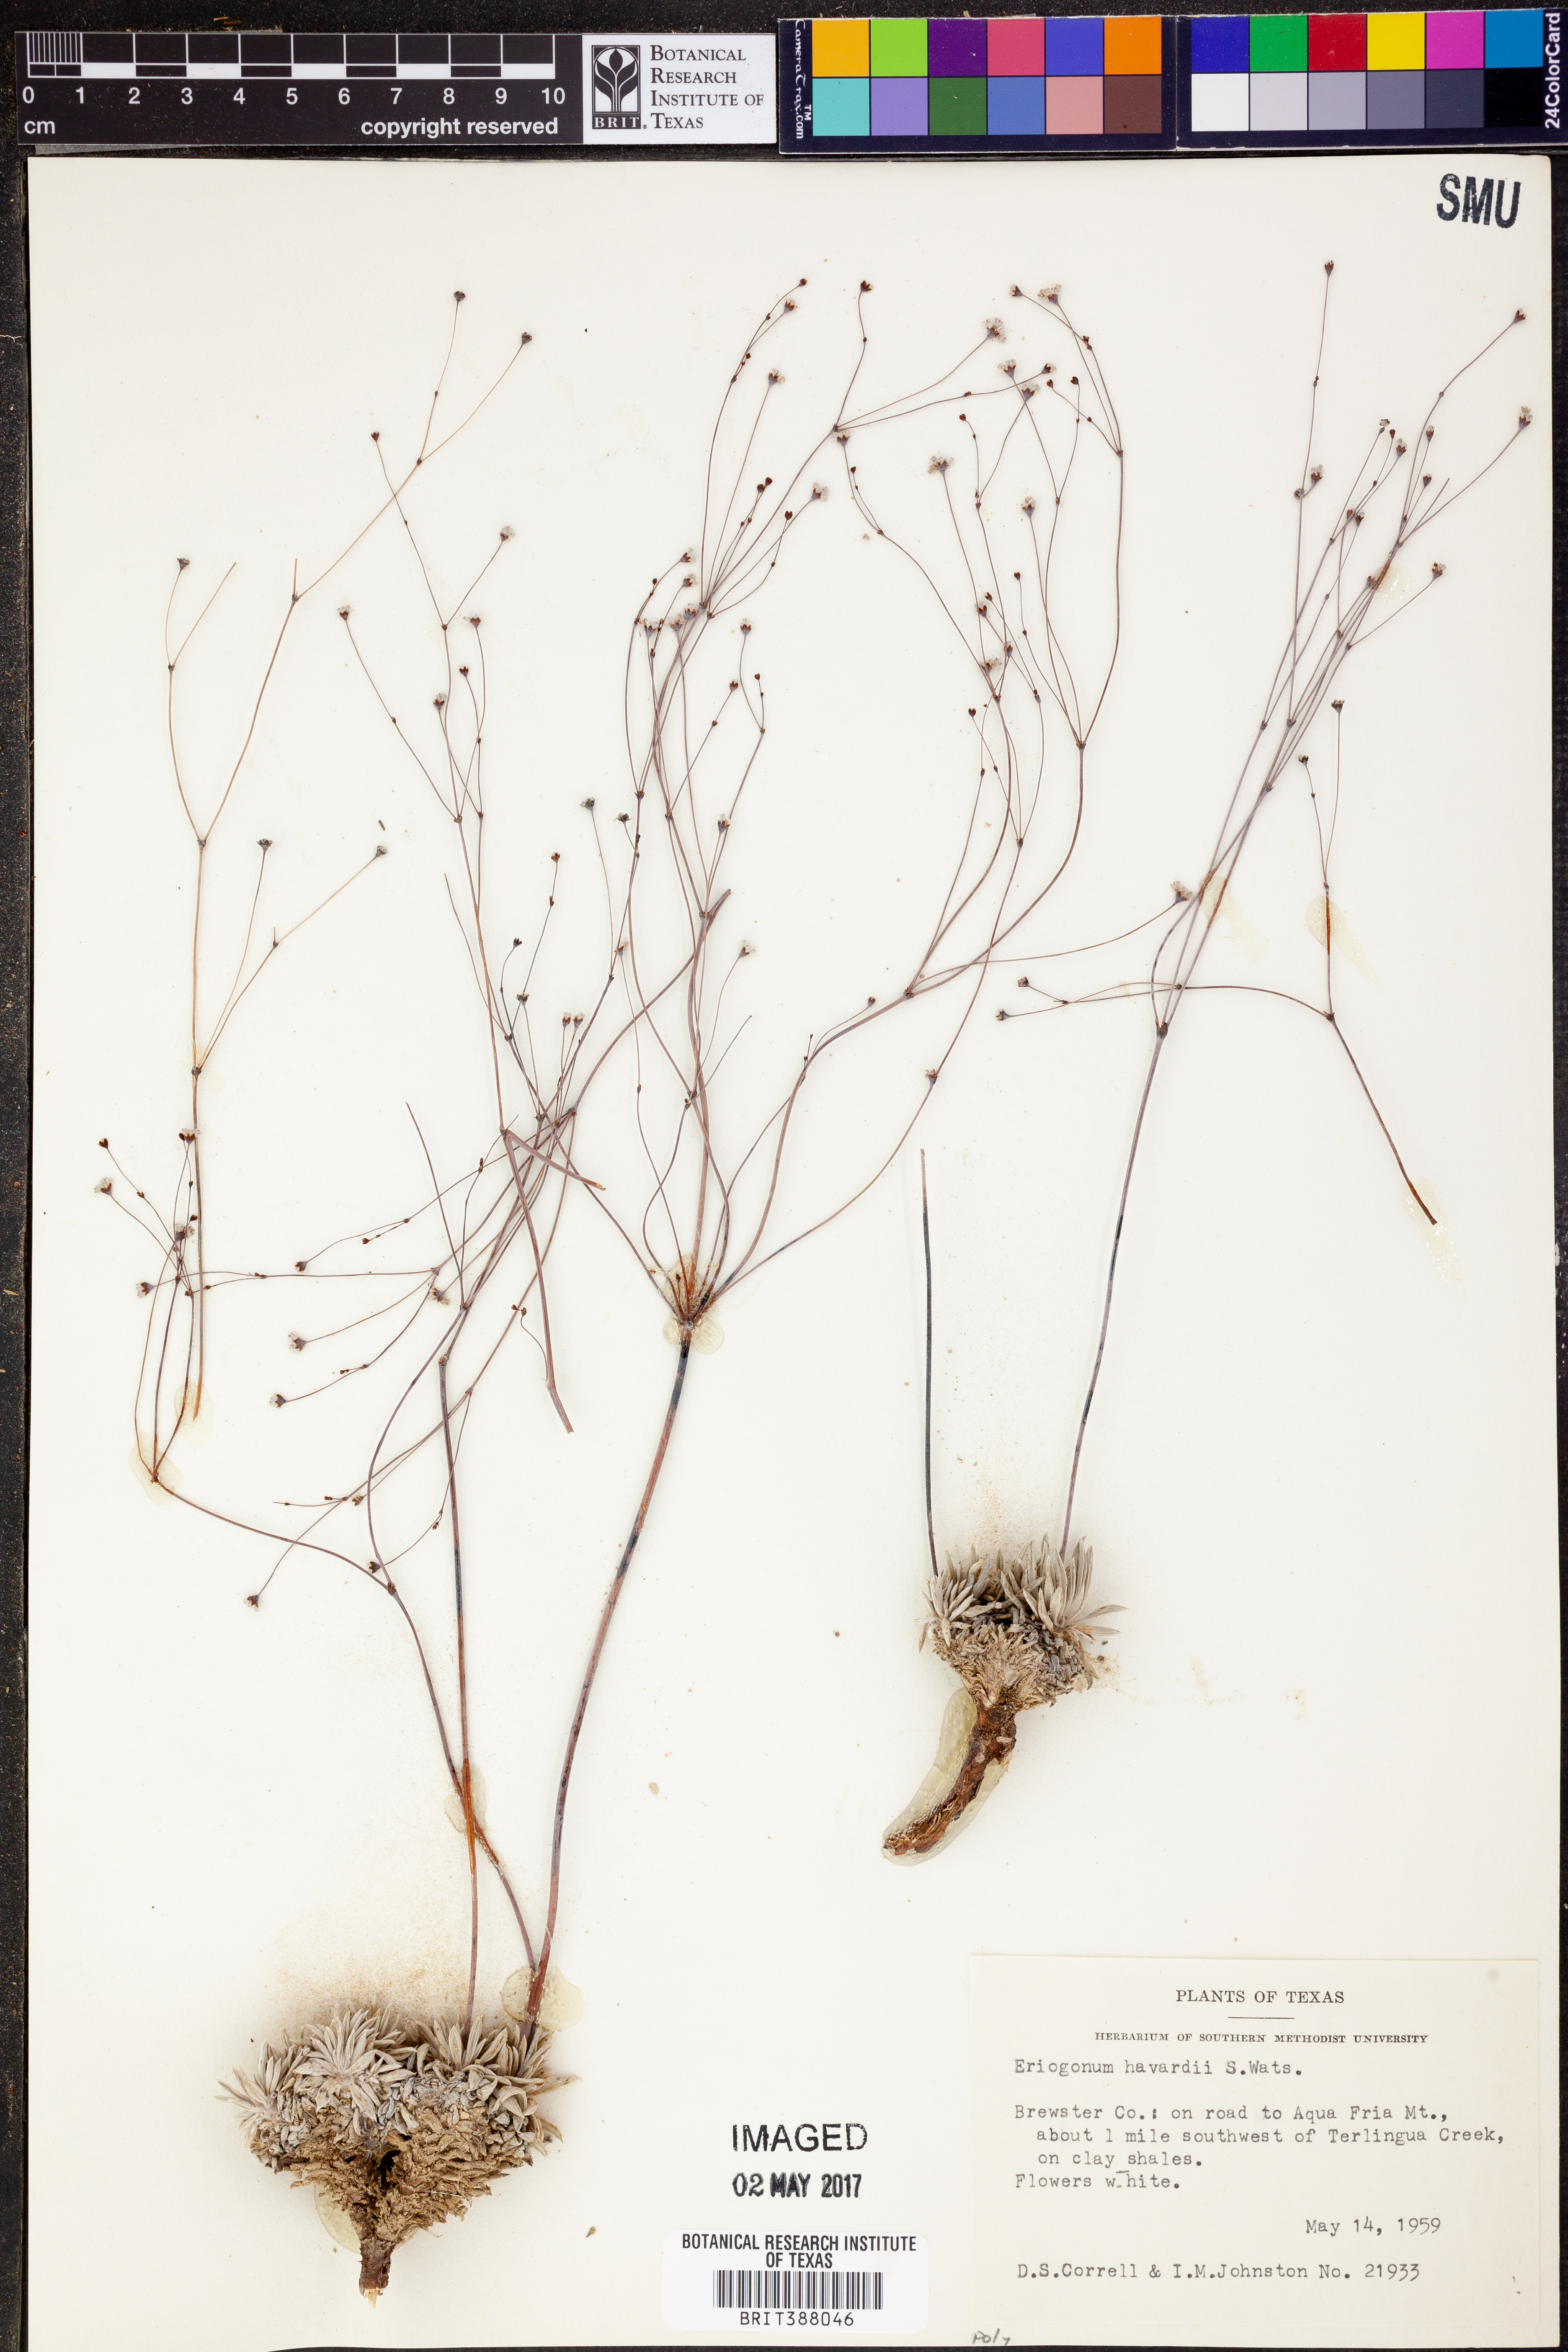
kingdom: Plantae
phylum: Tracheophyta
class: Magnoliopsida
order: Caryophyllales
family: Polygonaceae
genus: Eriogonum
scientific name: Eriogonum havardii
